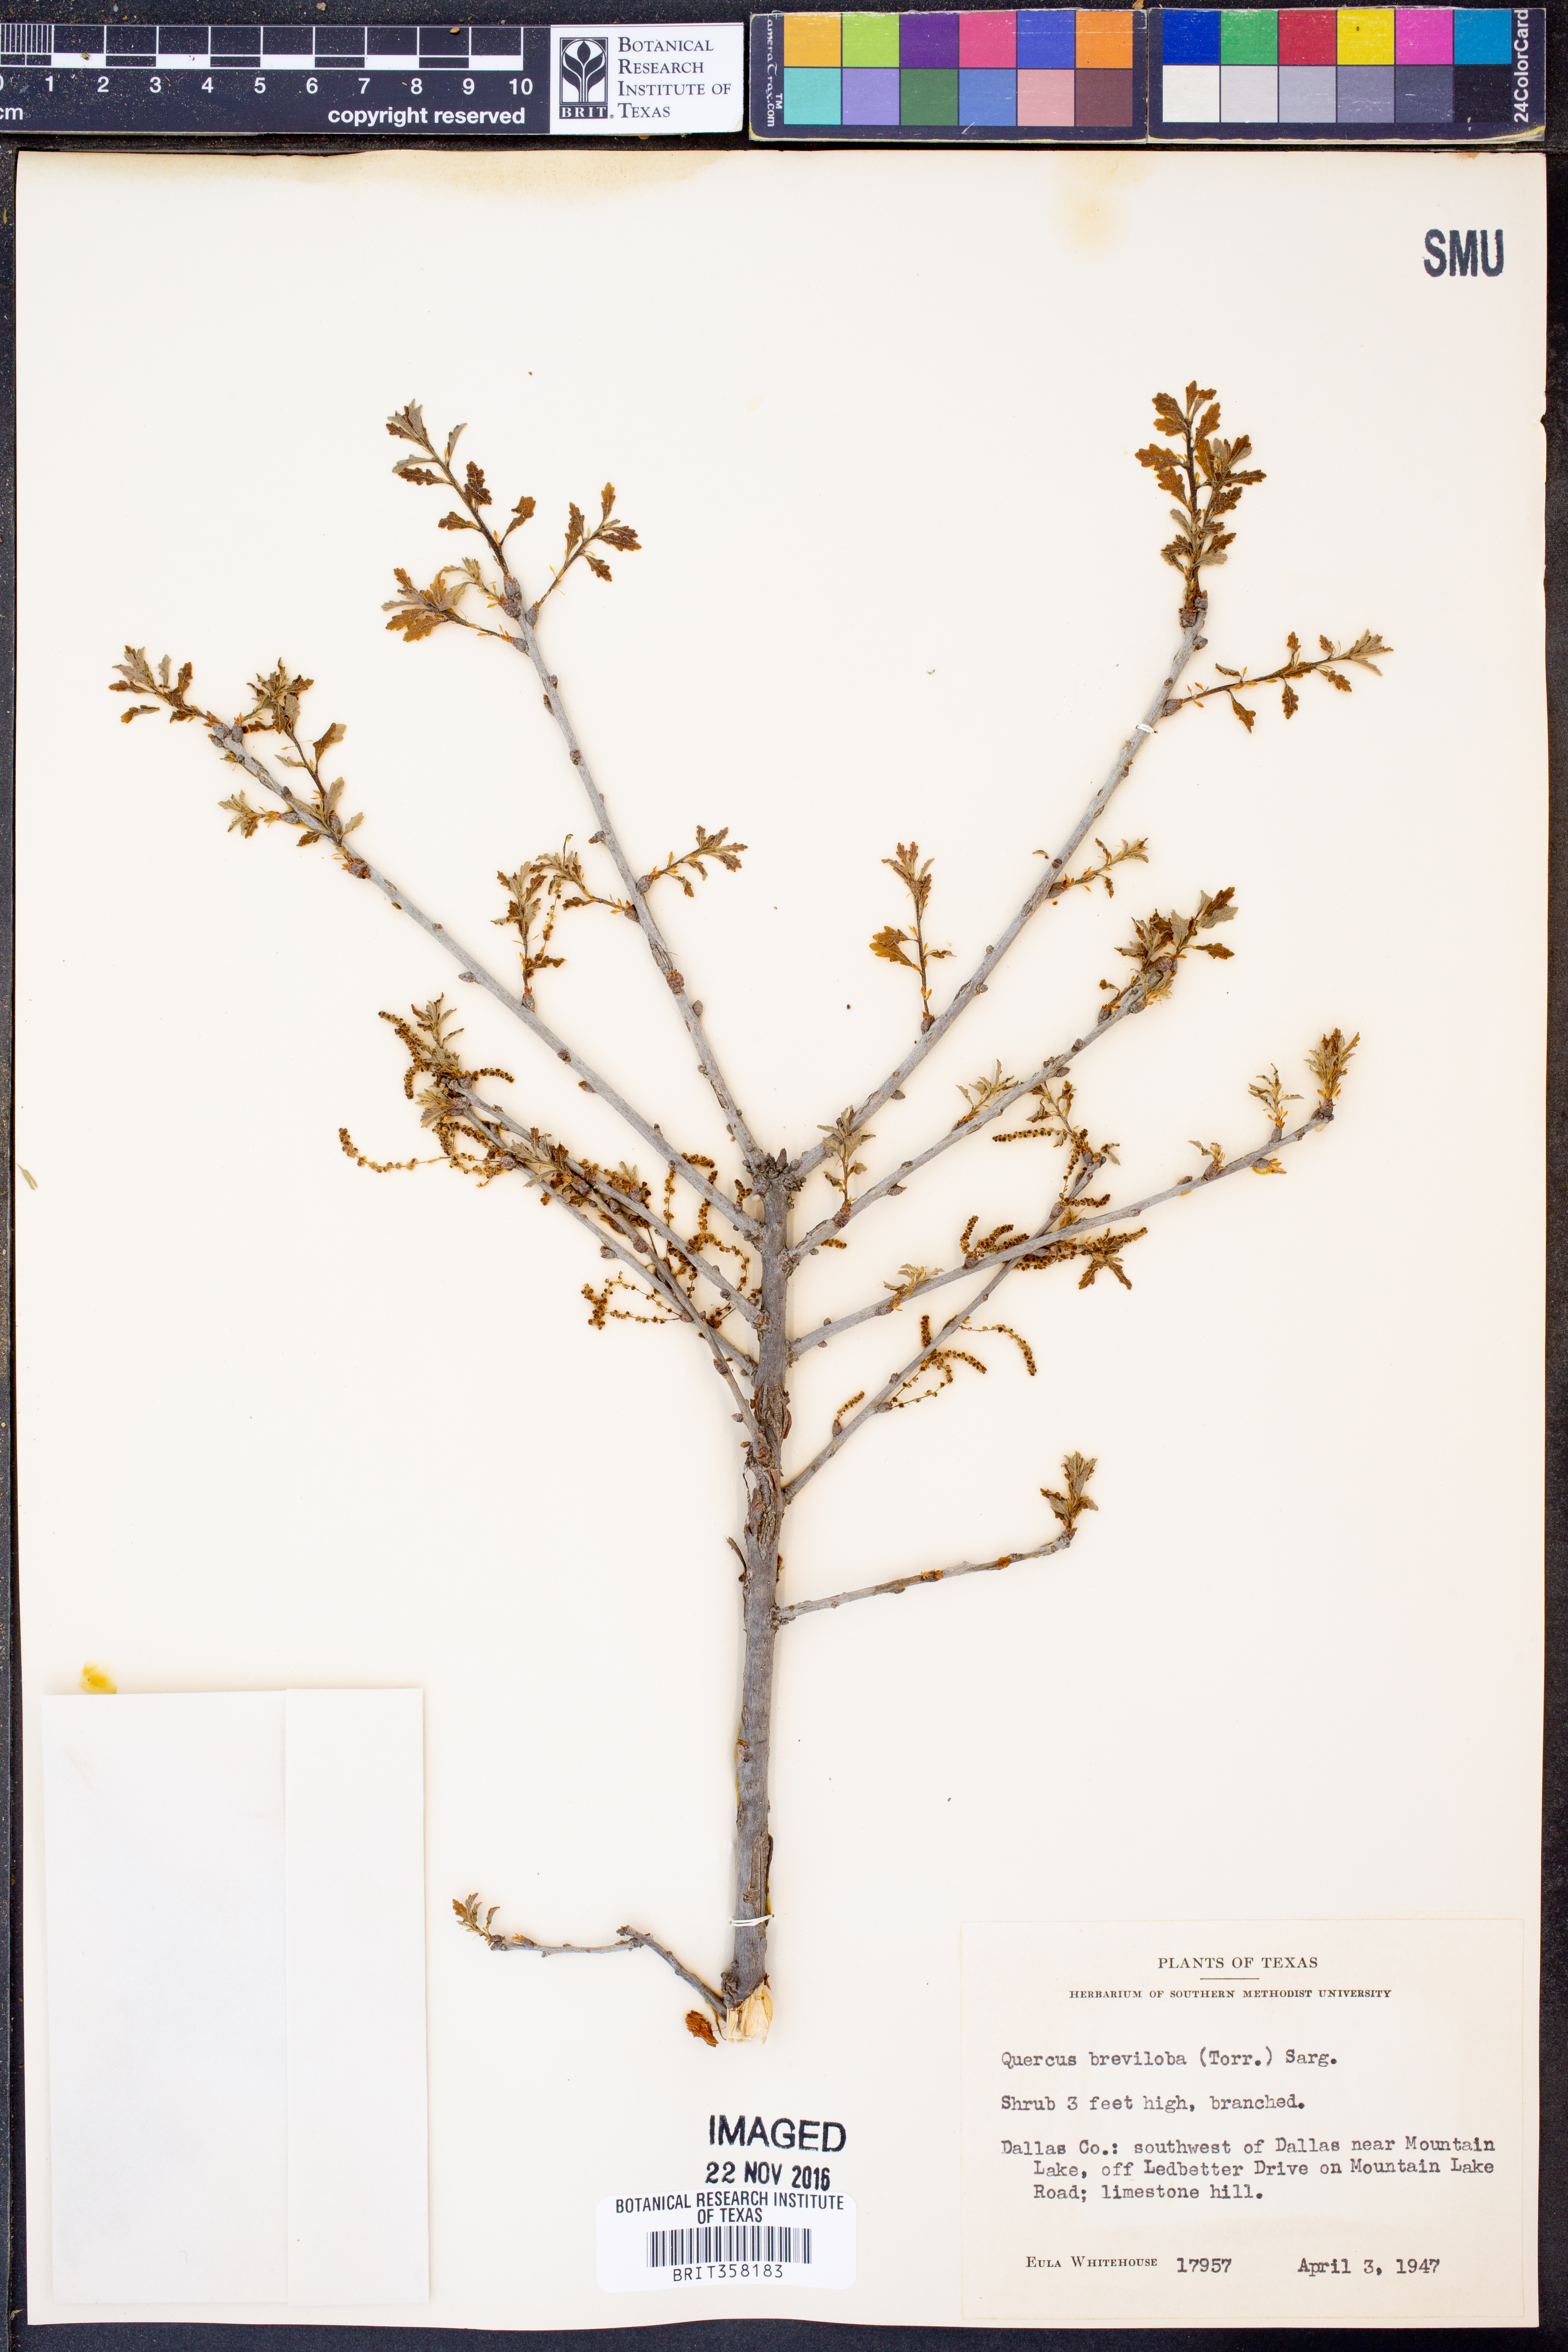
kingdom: Plantae
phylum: Tracheophyta
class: Magnoliopsida
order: Fagales
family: Fagaceae
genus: Quercus
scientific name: Quercus sinuata
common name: Durand oak
